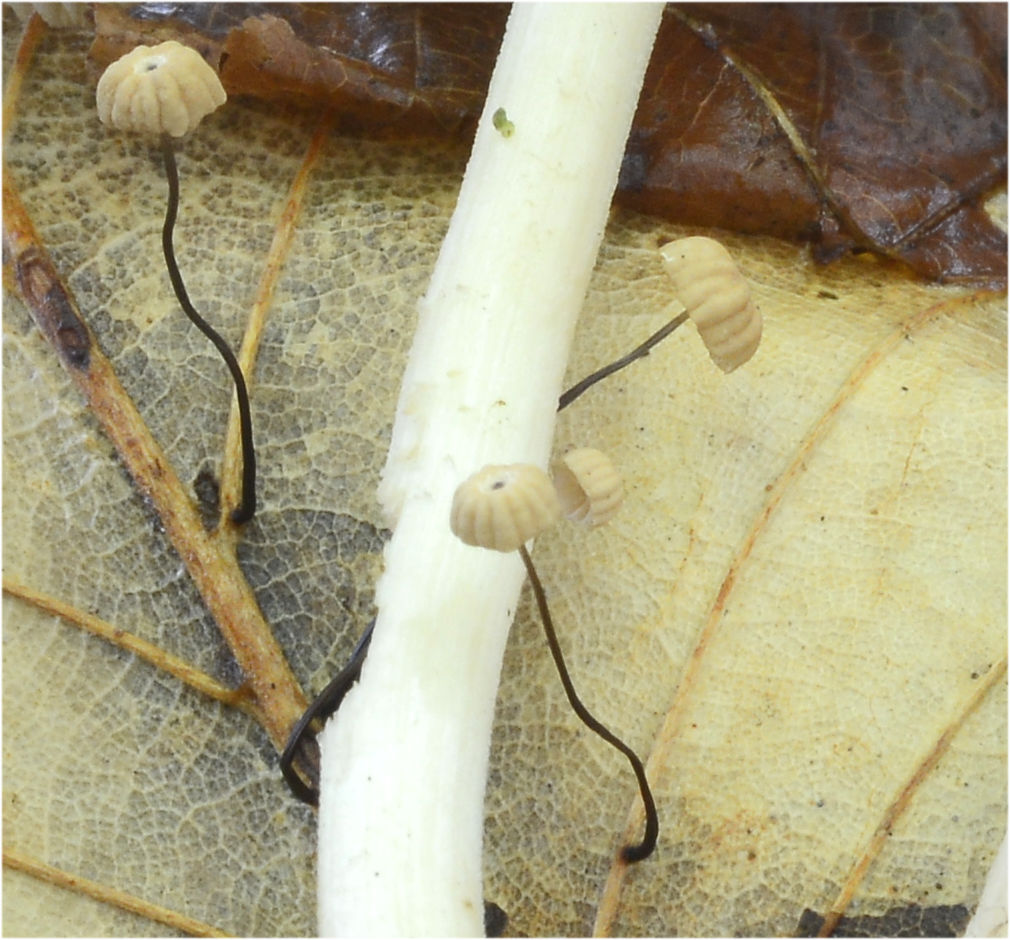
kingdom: Fungi
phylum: Basidiomycota
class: Agaricomycetes
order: Agaricales
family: Marasmiaceae
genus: Marasmius
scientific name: Marasmius bulliardii
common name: furet bruskhat
